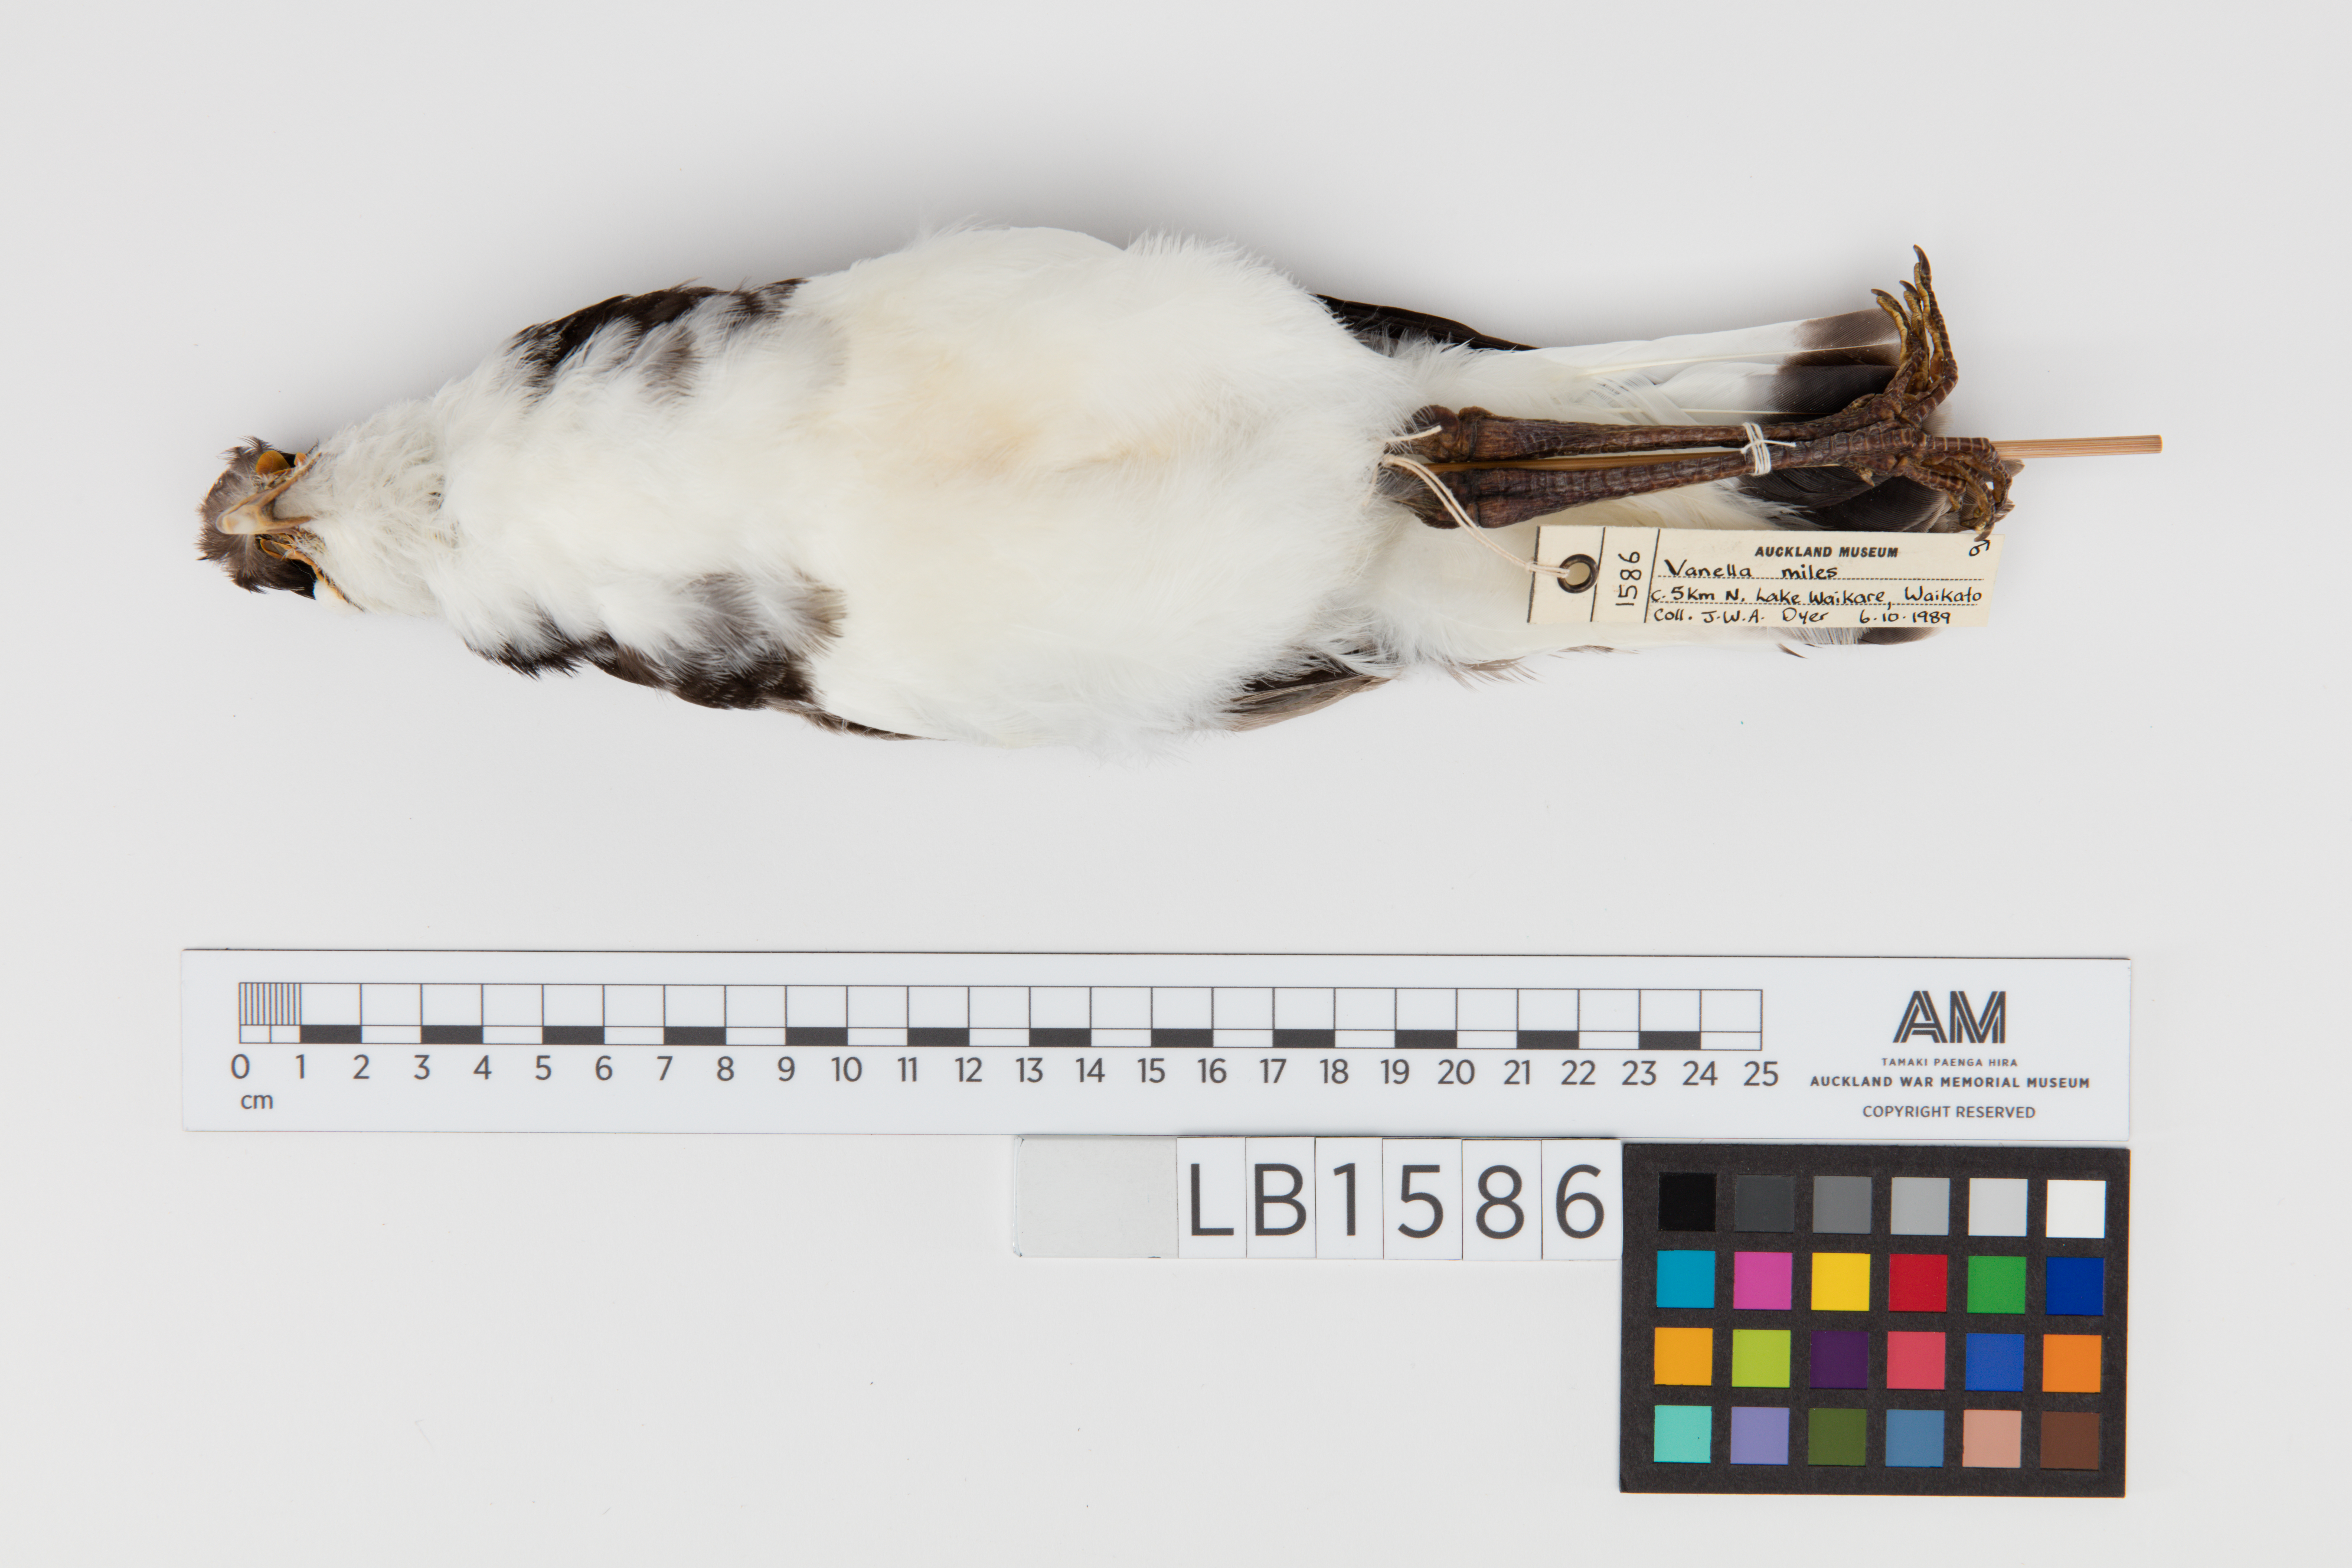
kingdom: Animalia
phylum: Chordata
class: Aves
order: Charadriiformes
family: Charadriidae
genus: Vanellus
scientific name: Vanellus miles
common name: Masked lapwing
